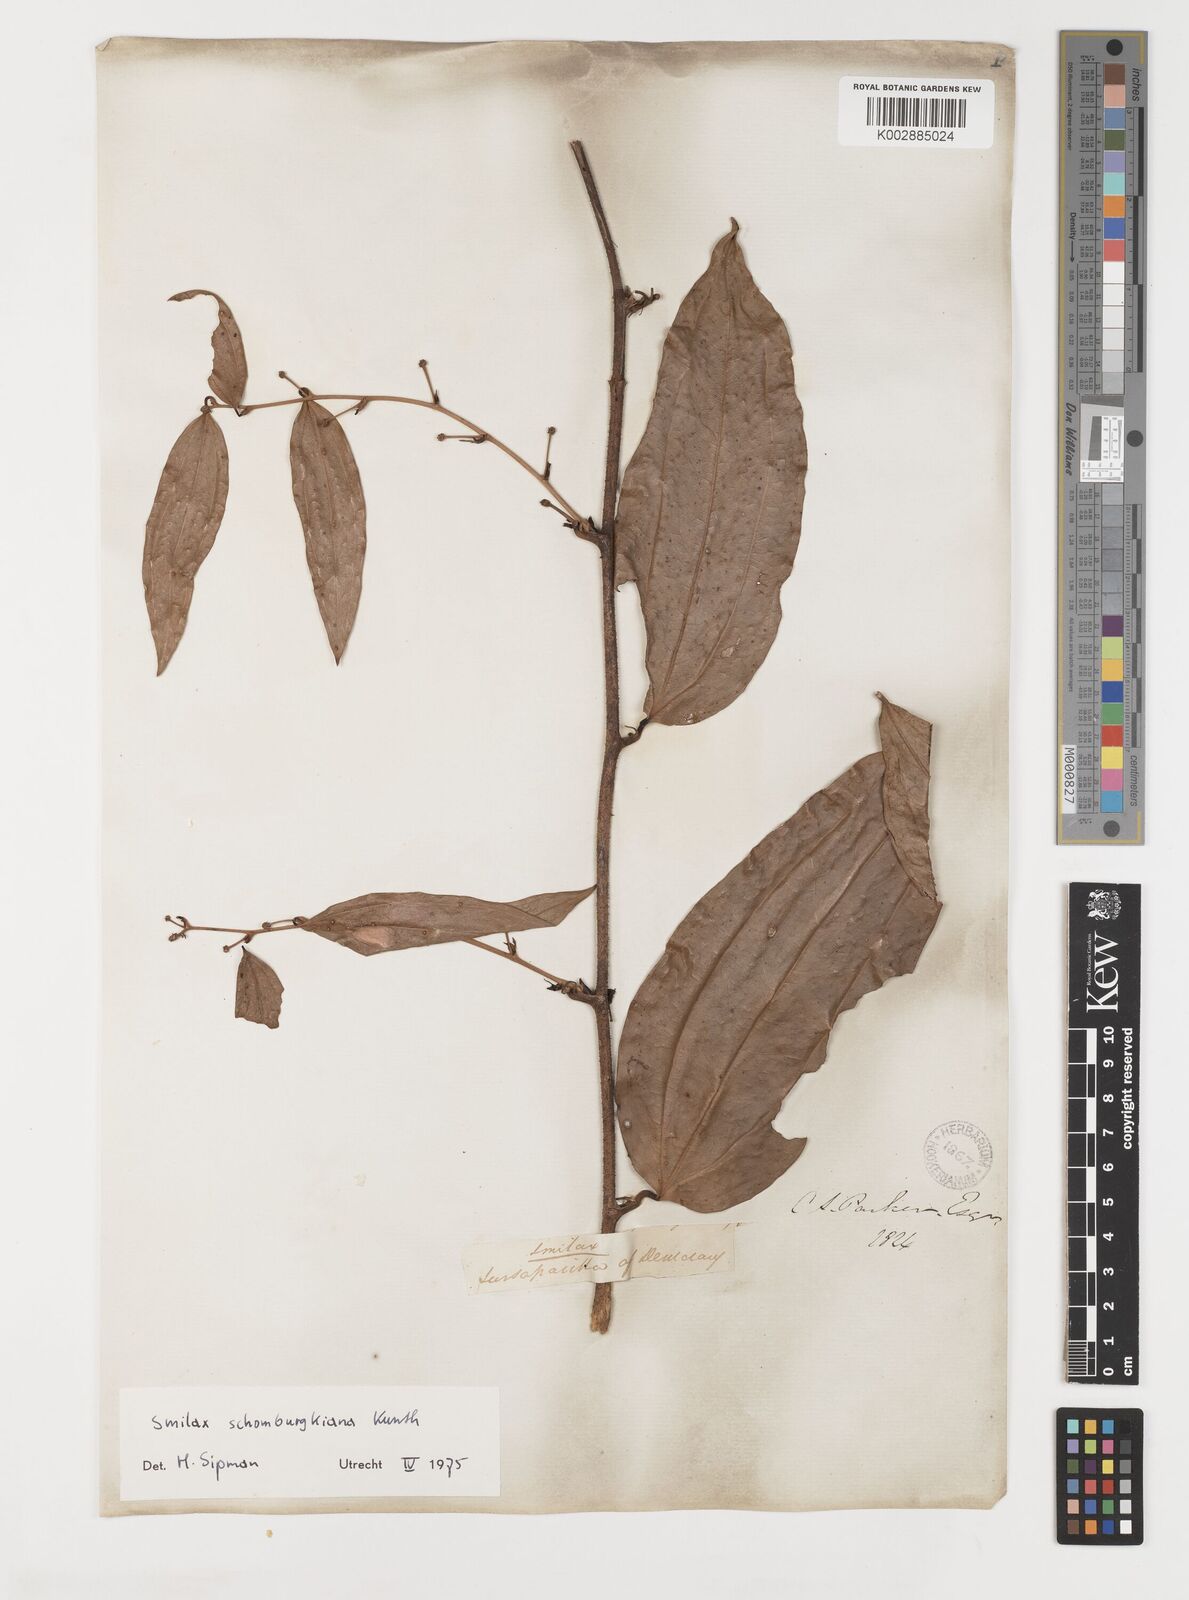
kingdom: Plantae
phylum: Tracheophyta
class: Liliopsida
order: Liliales
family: Smilacaceae
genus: Smilax
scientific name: Smilax schomburgkiana
